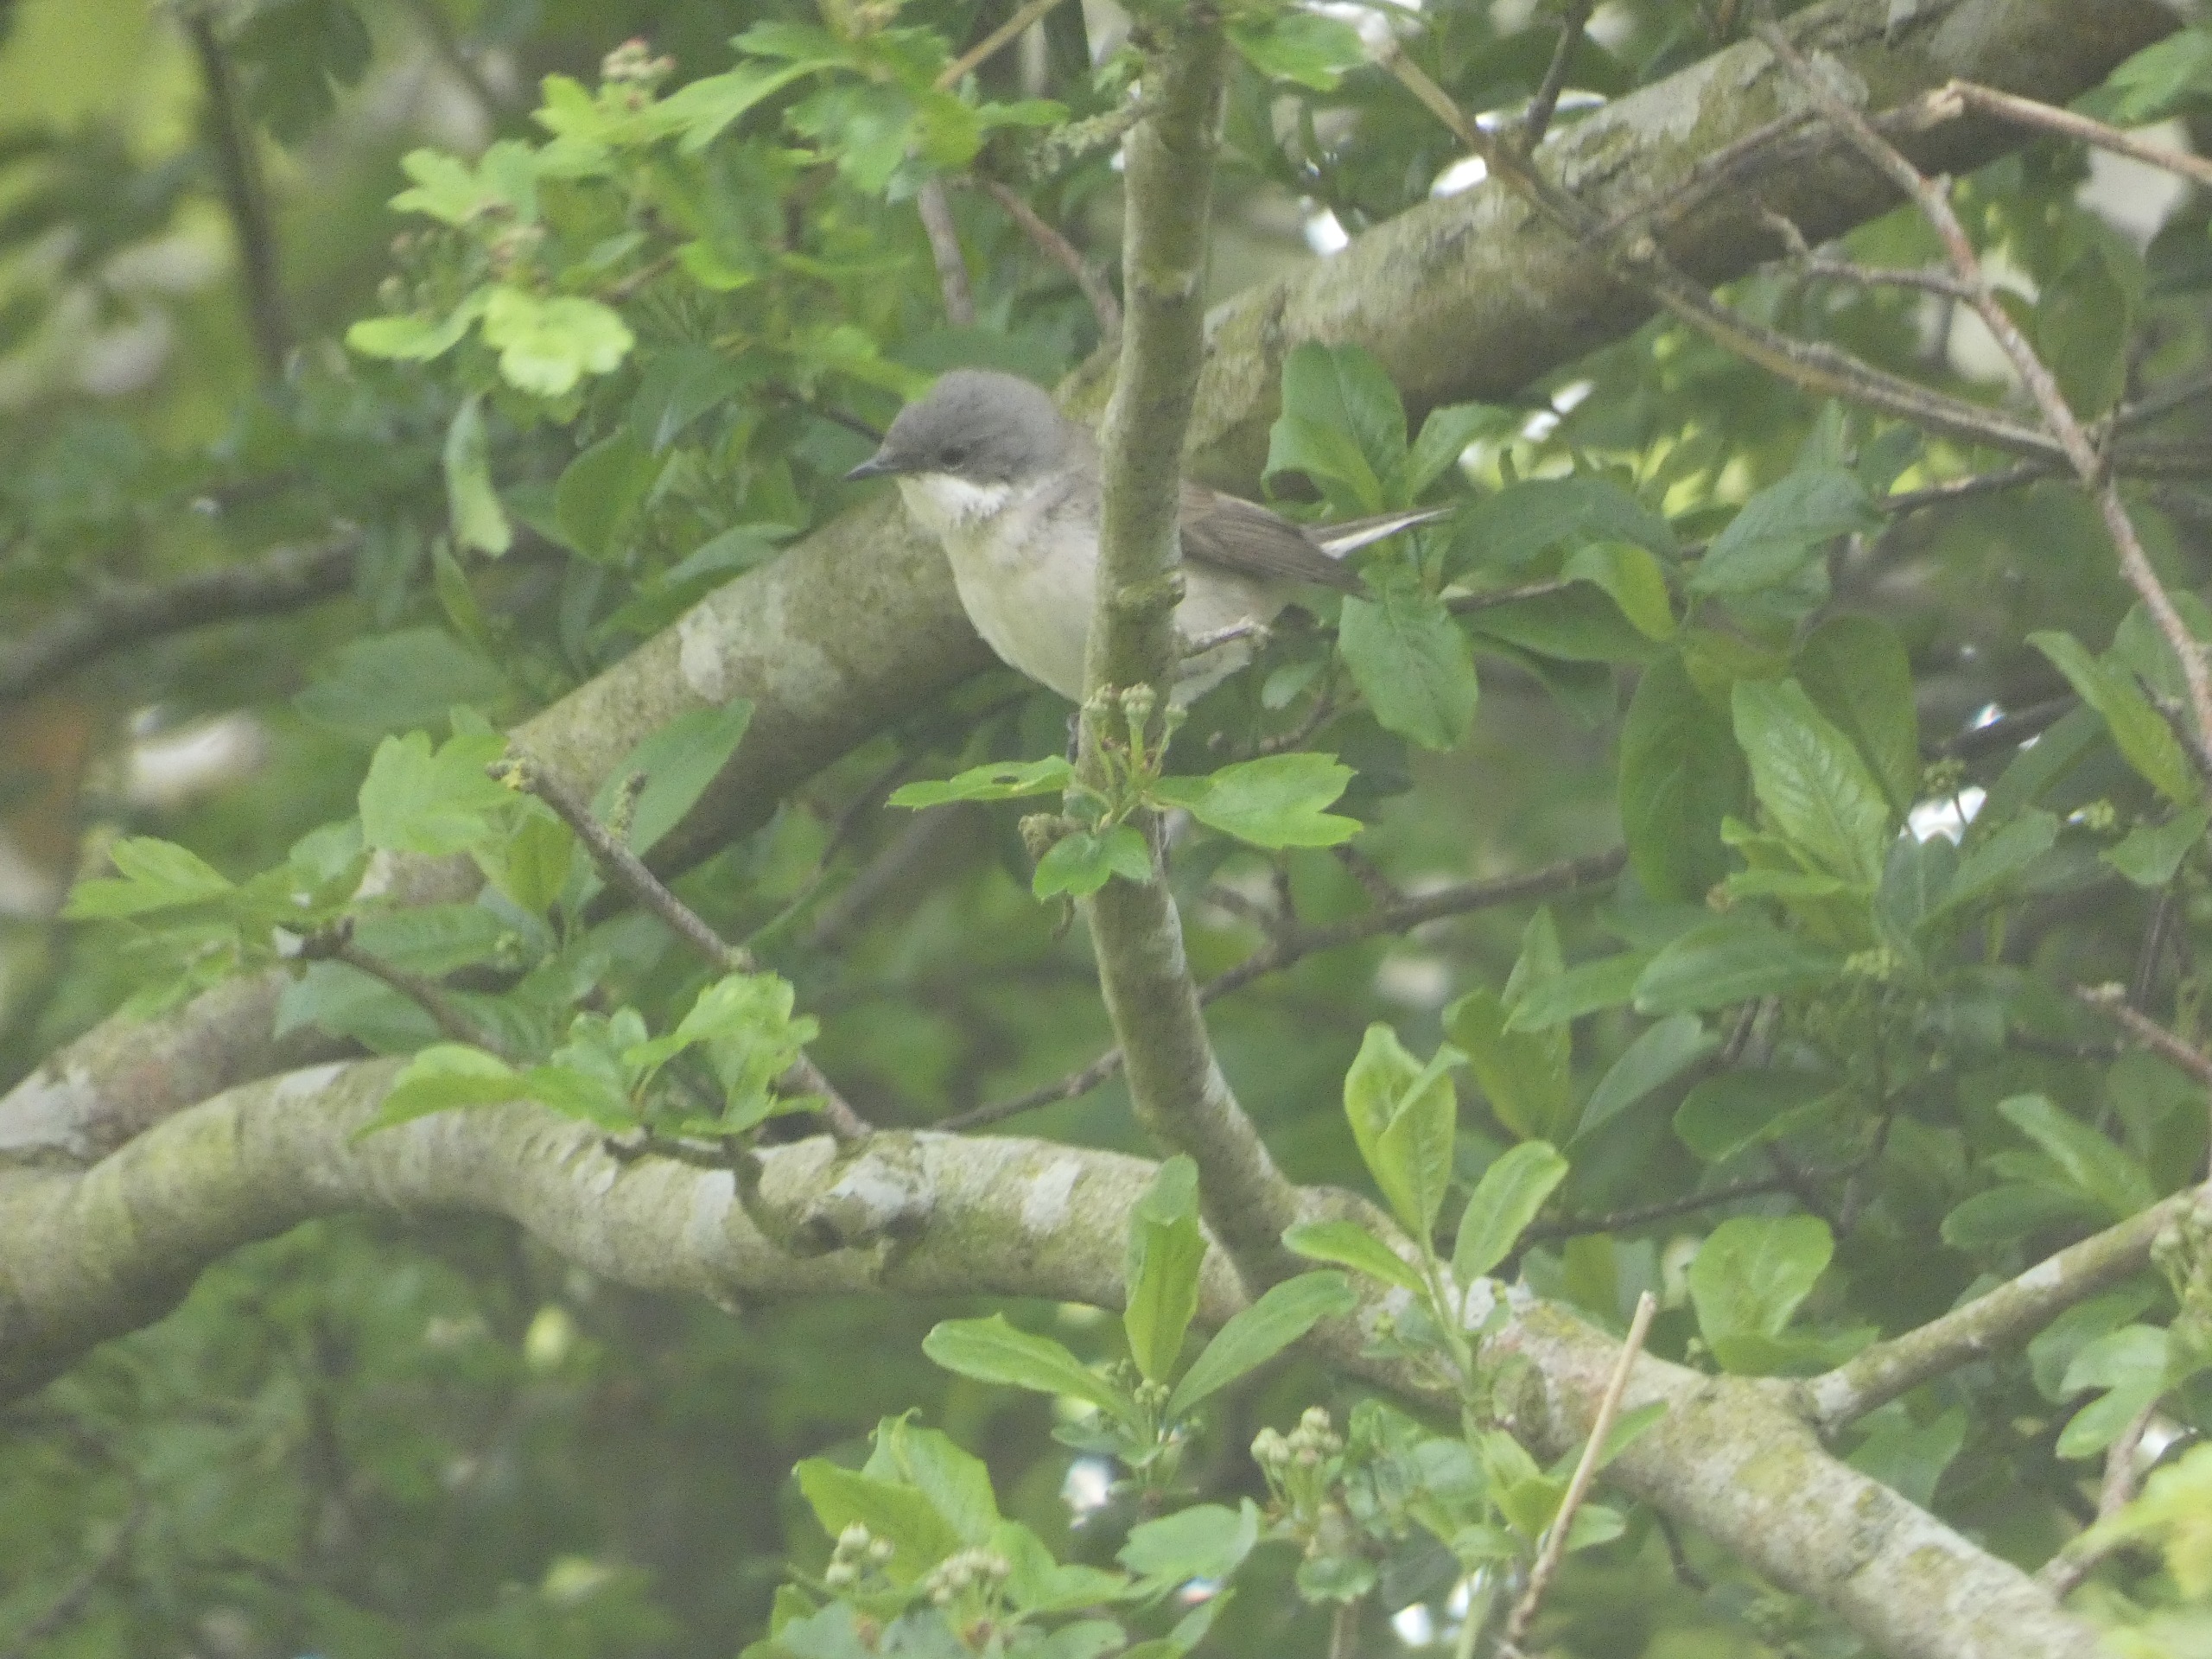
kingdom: Animalia
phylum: Chordata
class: Aves
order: Passeriformes
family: Sylviidae
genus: Sylvia
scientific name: Sylvia curruca
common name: Gærdesanger
